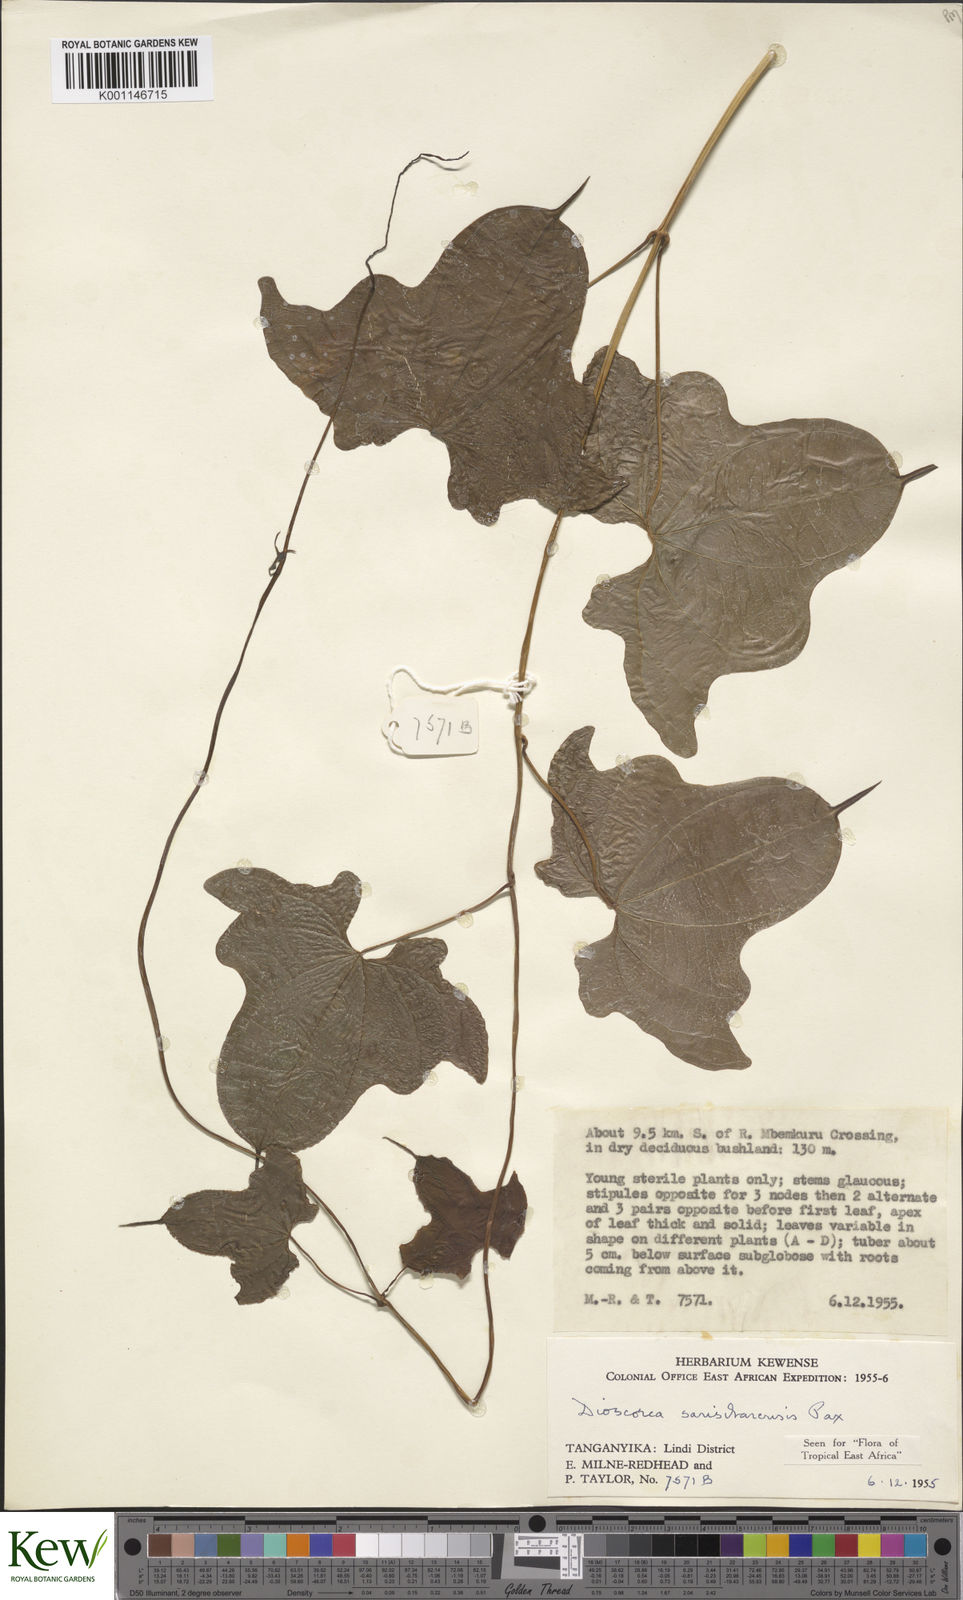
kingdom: Plantae
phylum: Tracheophyta
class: Liliopsida
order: Dioscoreales
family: Dioscoreaceae
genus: Dioscorea
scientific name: Dioscorea sansibarensis
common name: Zanzibar yam
